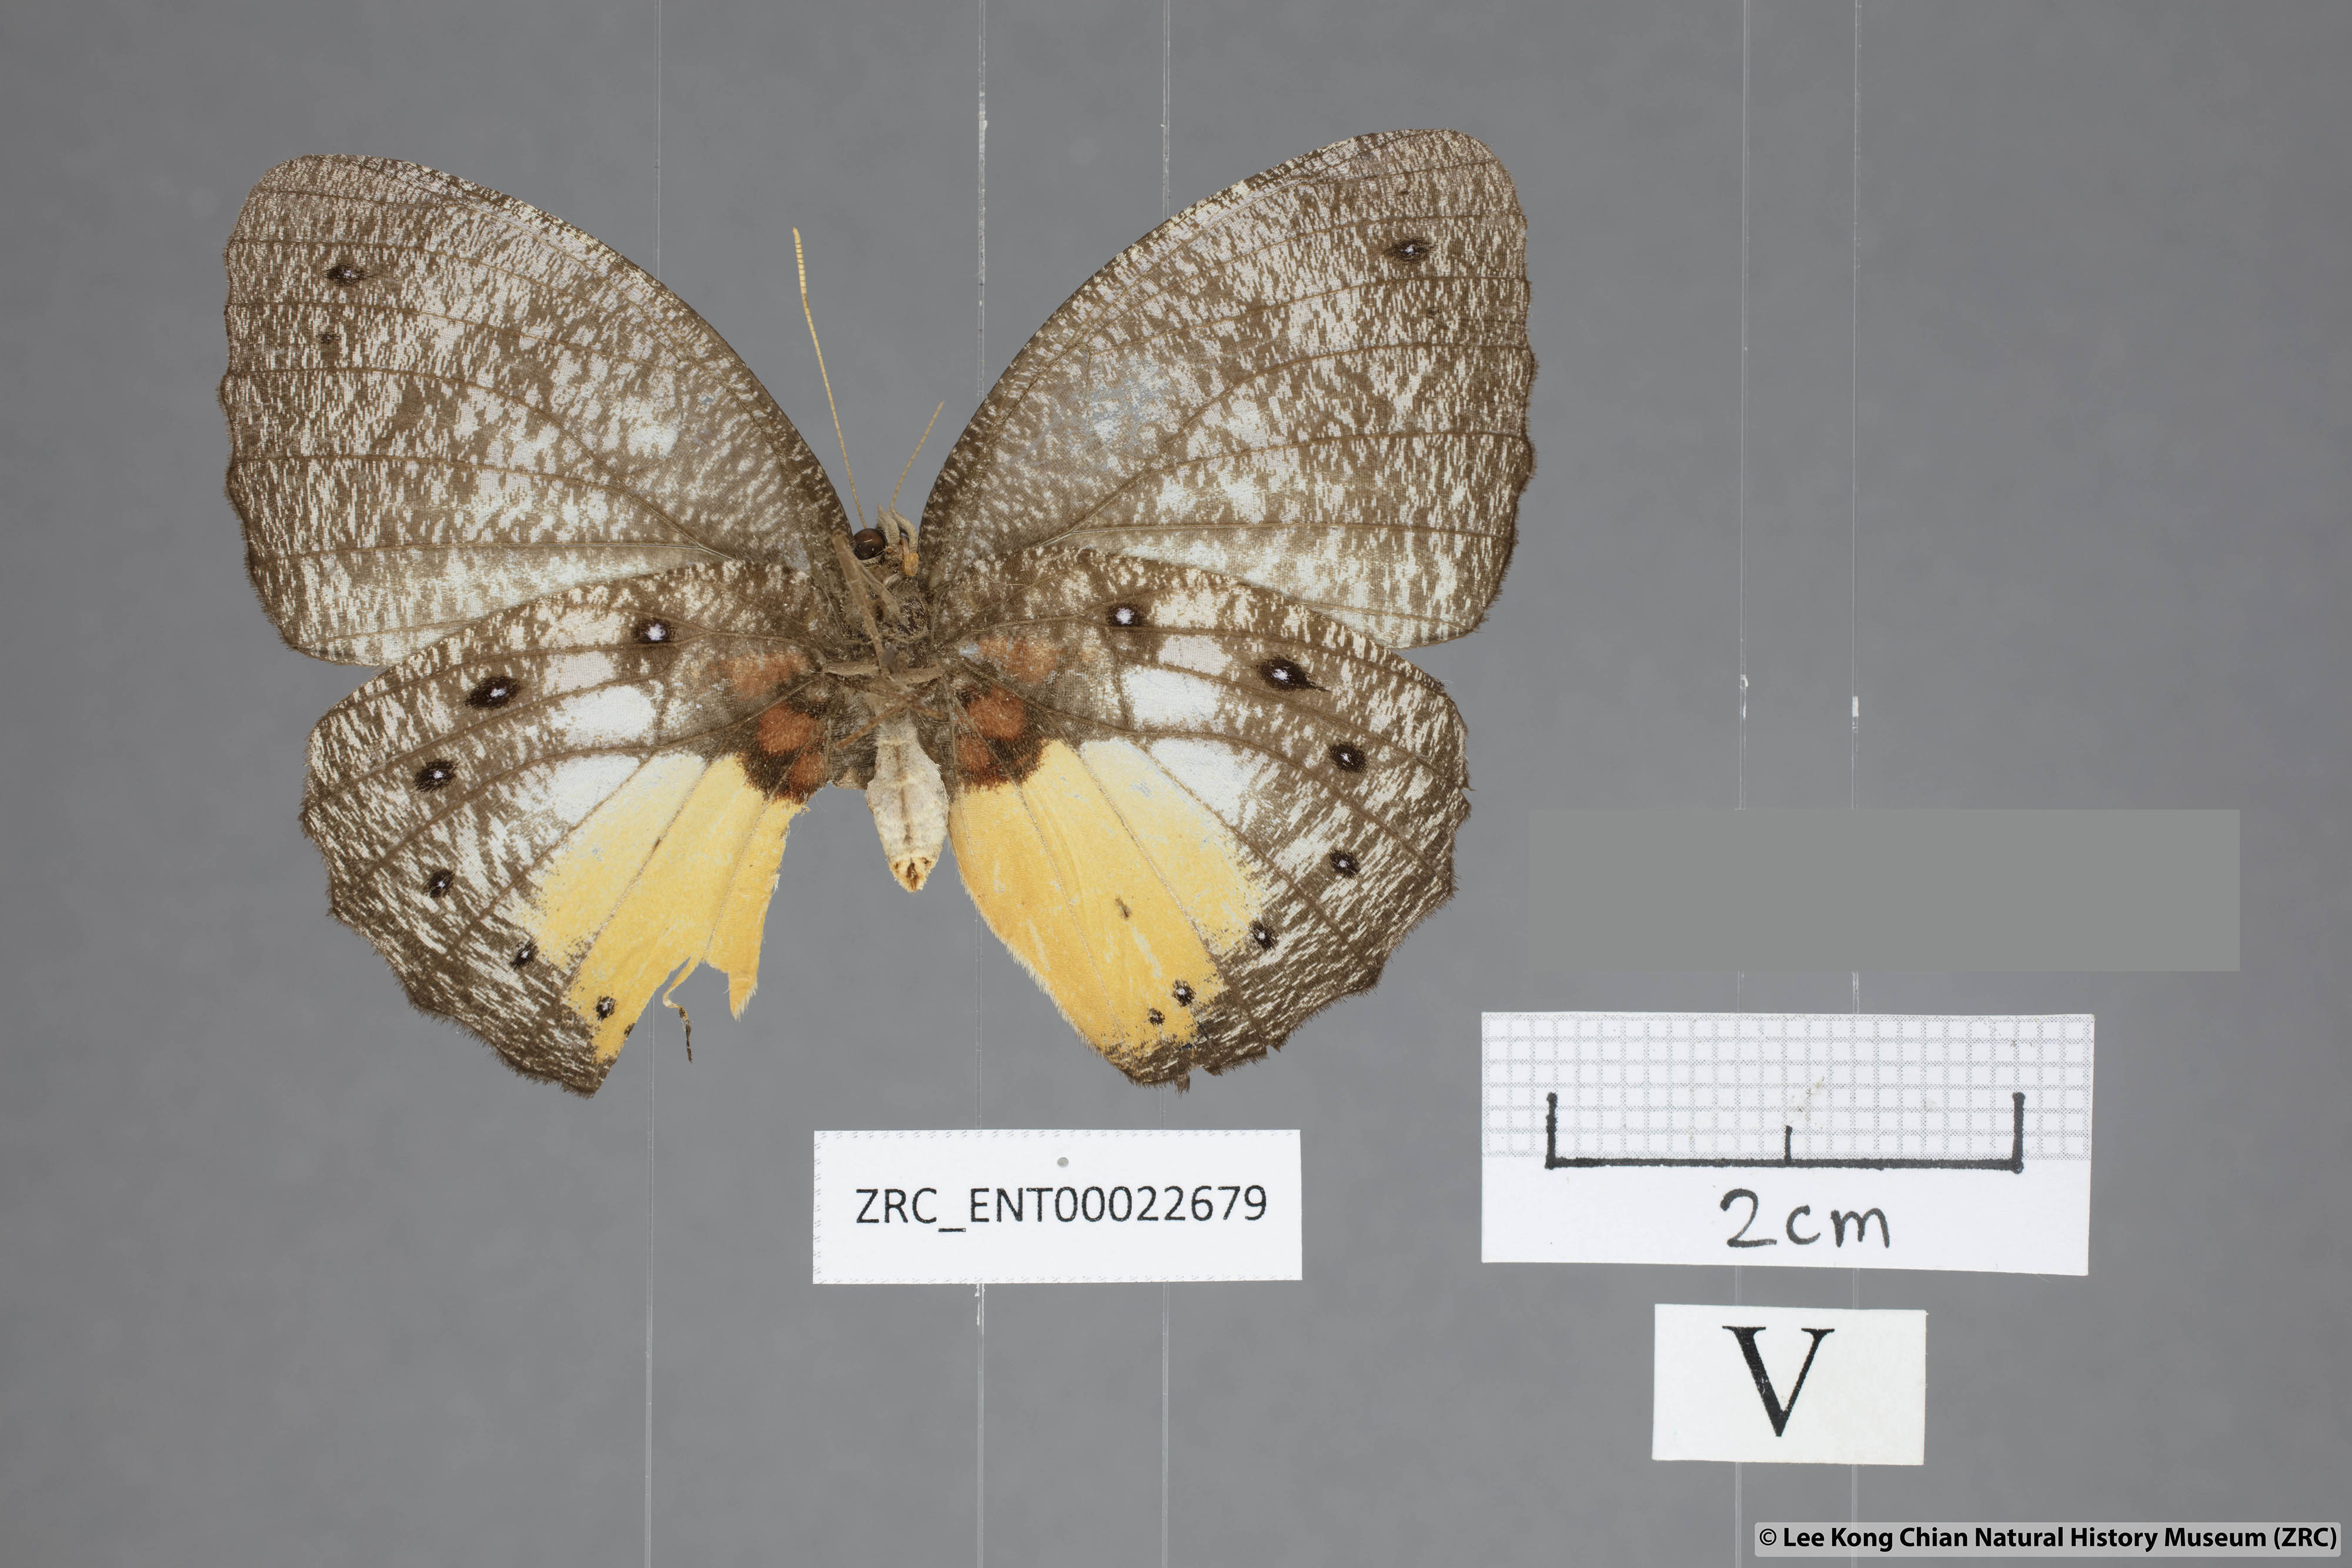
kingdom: Animalia
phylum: Arthropoda
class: Insecta
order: Lepidoptera
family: Nymphalidae
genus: Elymnias
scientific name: Elymnias esaca
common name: Green palmfly
